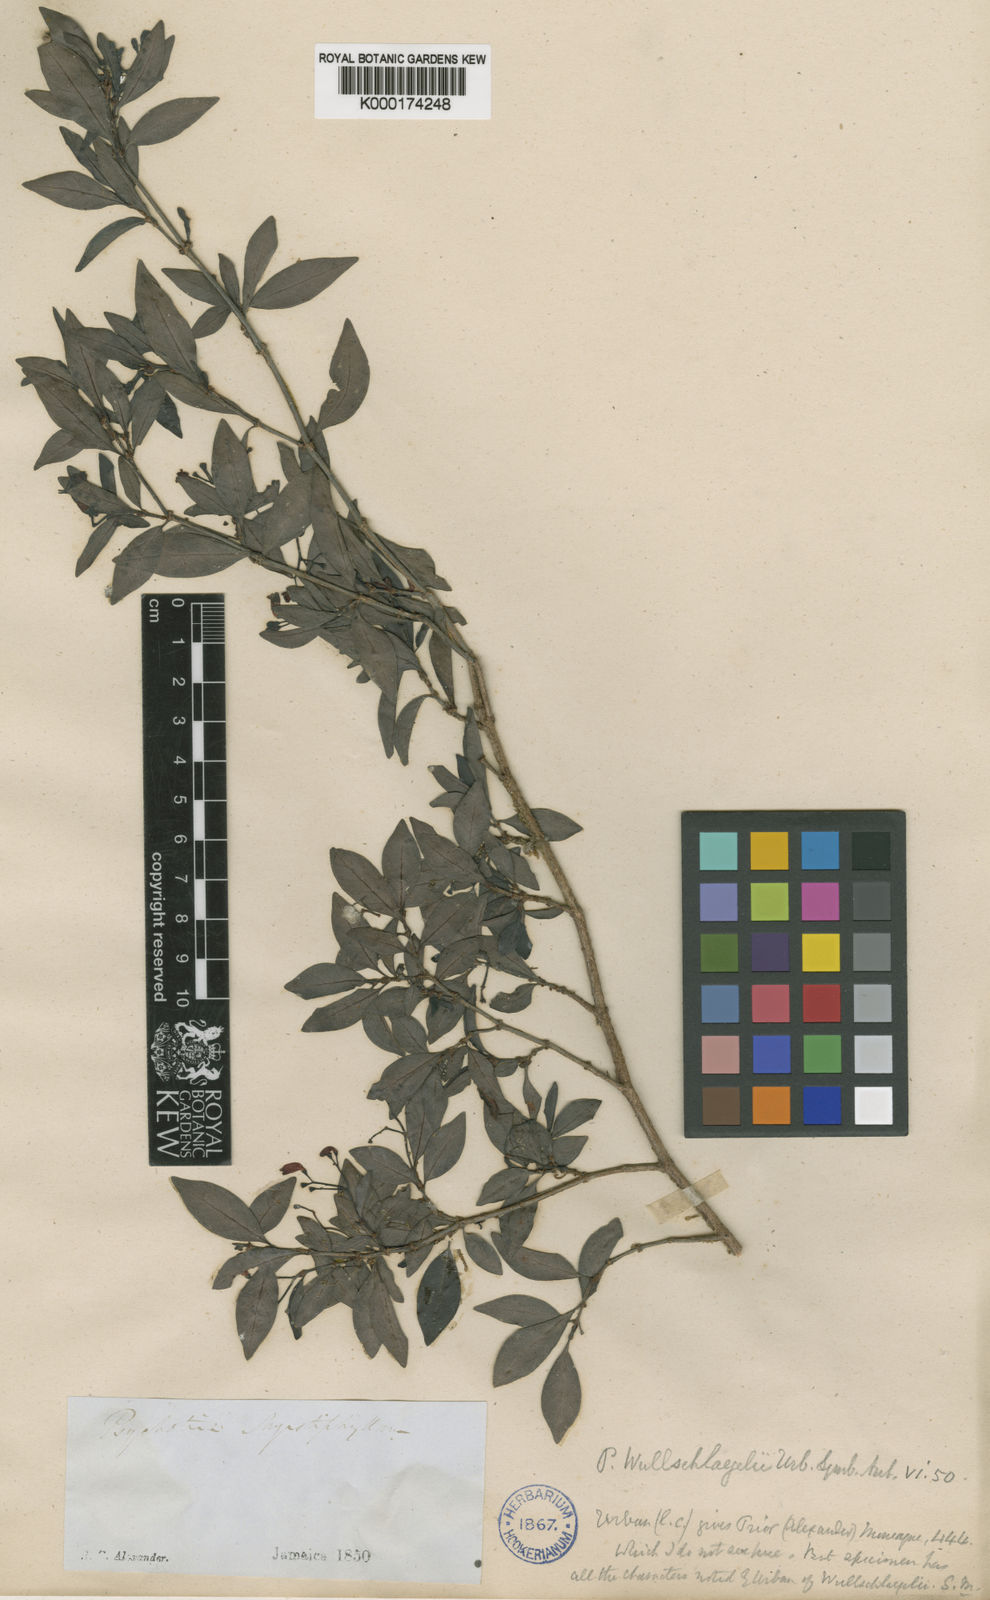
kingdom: Plantae
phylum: Tracheophyta
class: Magnoliopsida
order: Gentianales
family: Rubiaceae
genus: Psychotria
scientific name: Psychotria wullschlaegelii
